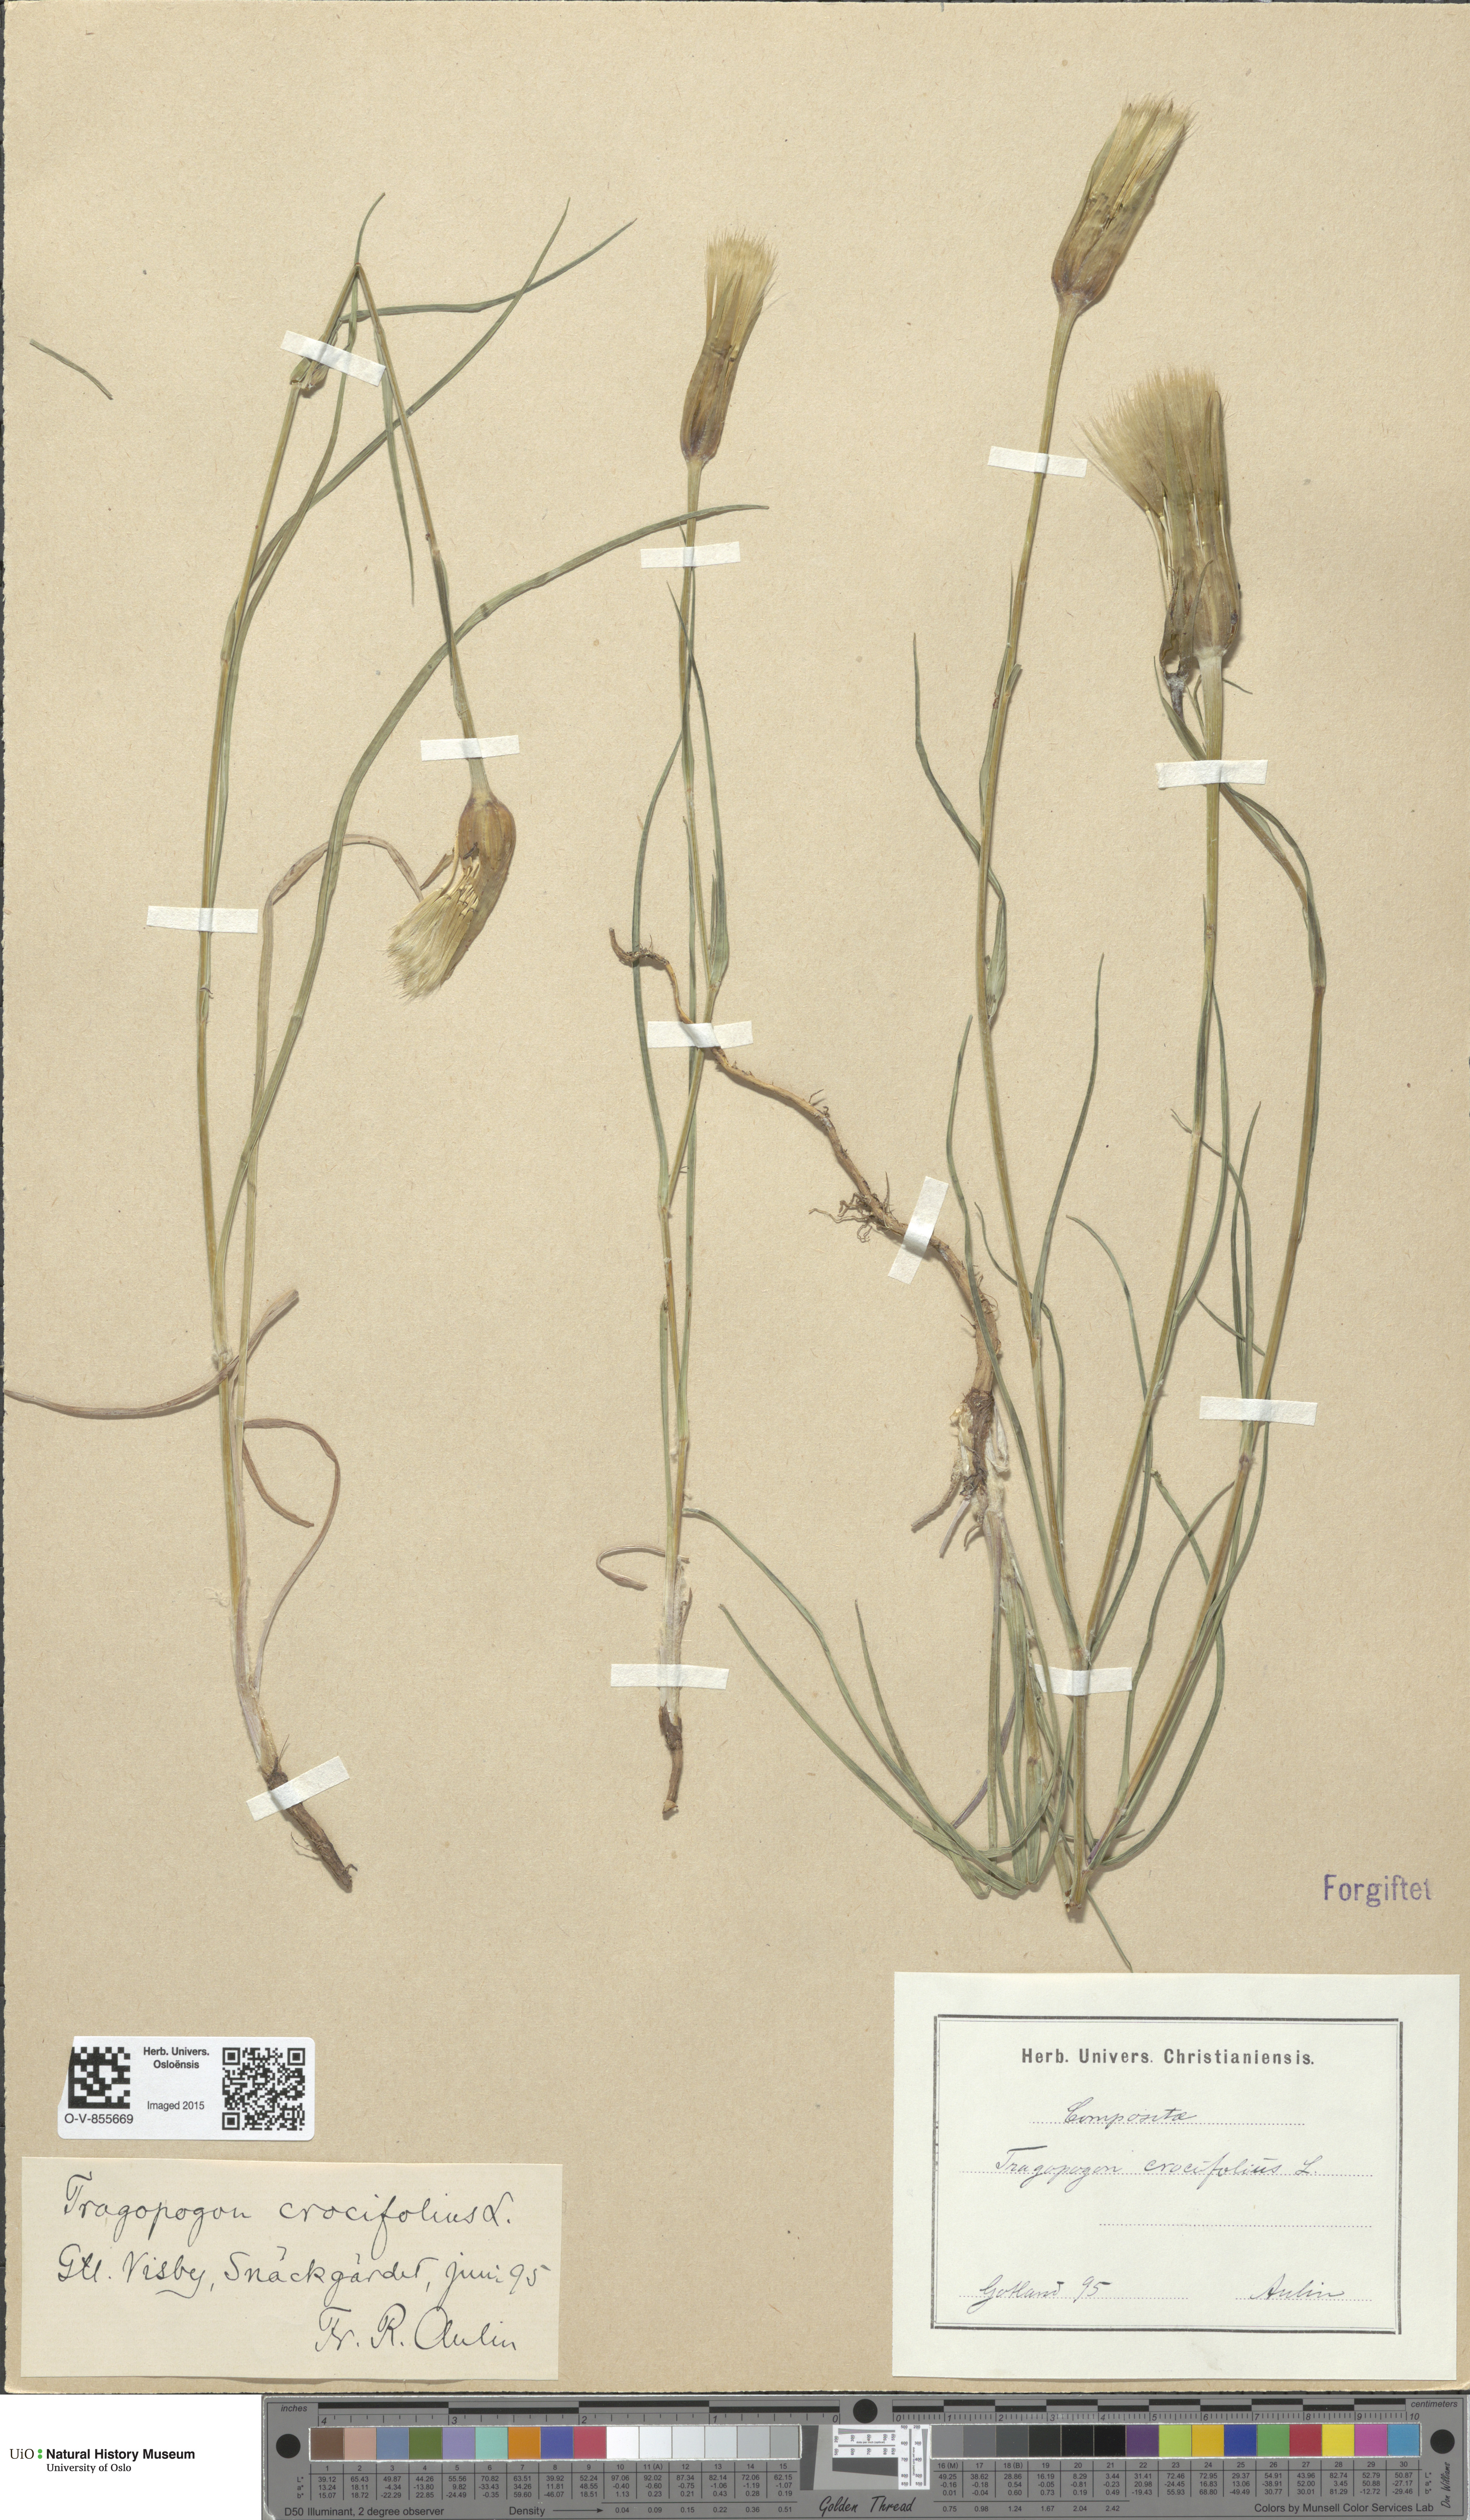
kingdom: Plantae
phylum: Tracheophyta
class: Magnoliopsida
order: Asterales
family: Asteraceae
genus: Tragopogon
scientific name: Tragopogon crocifolius
